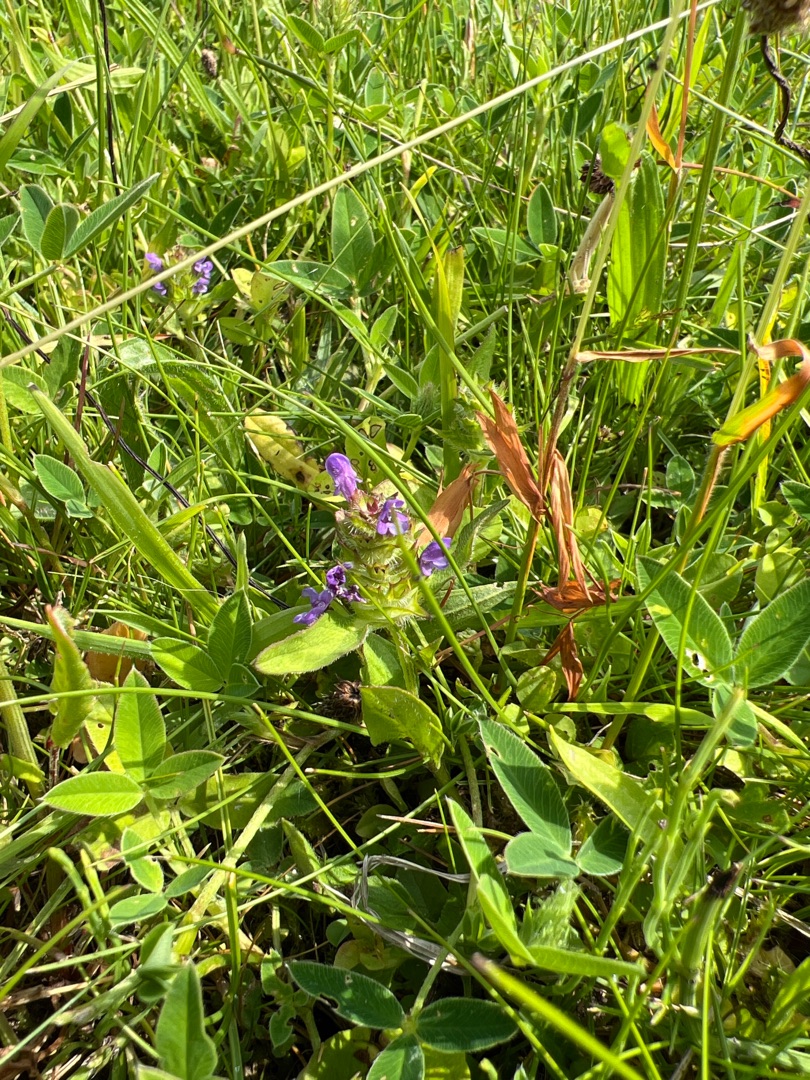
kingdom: Plantae
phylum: Tracheophyta
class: Magnoliopsida
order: Lamiales
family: Lamiaceae
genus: Prunella
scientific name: Prunella vulgaris
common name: Almindelig brunelle
